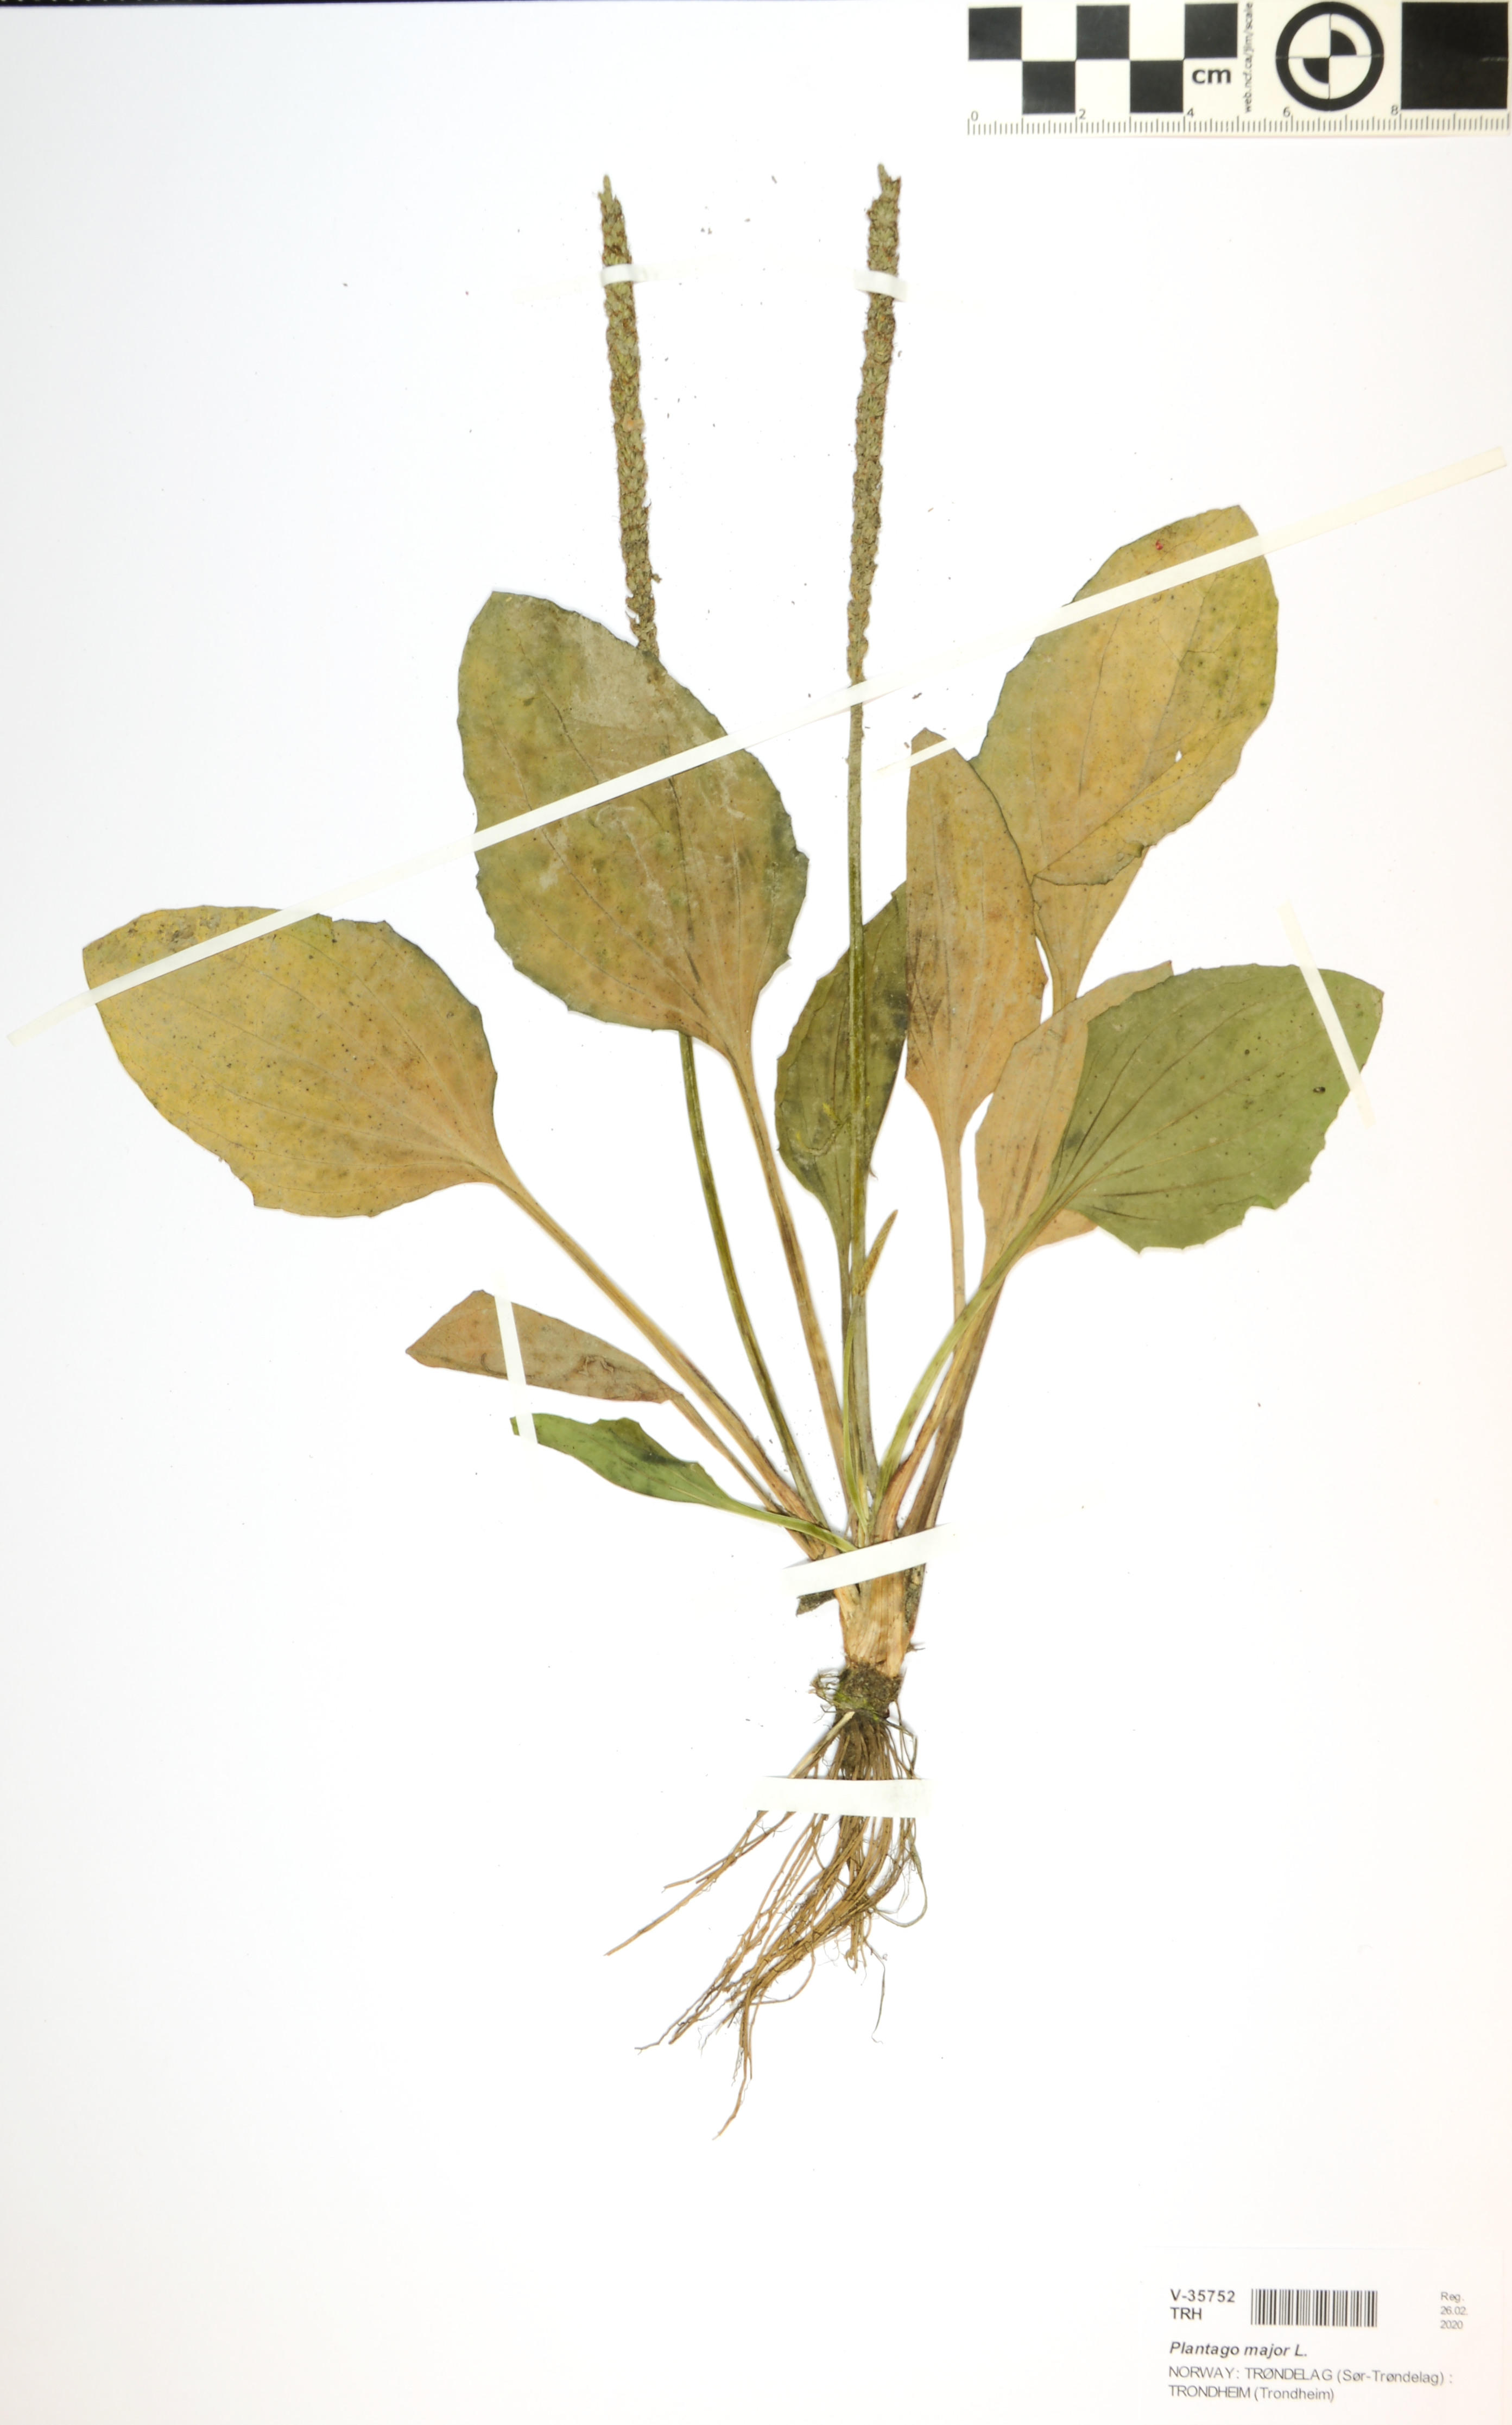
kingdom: Plantae
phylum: Tracheophyta
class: Magnoliopsida
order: Lamiales
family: Plantaginaceae
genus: Plantago
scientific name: Plantago major
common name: Common plantain
